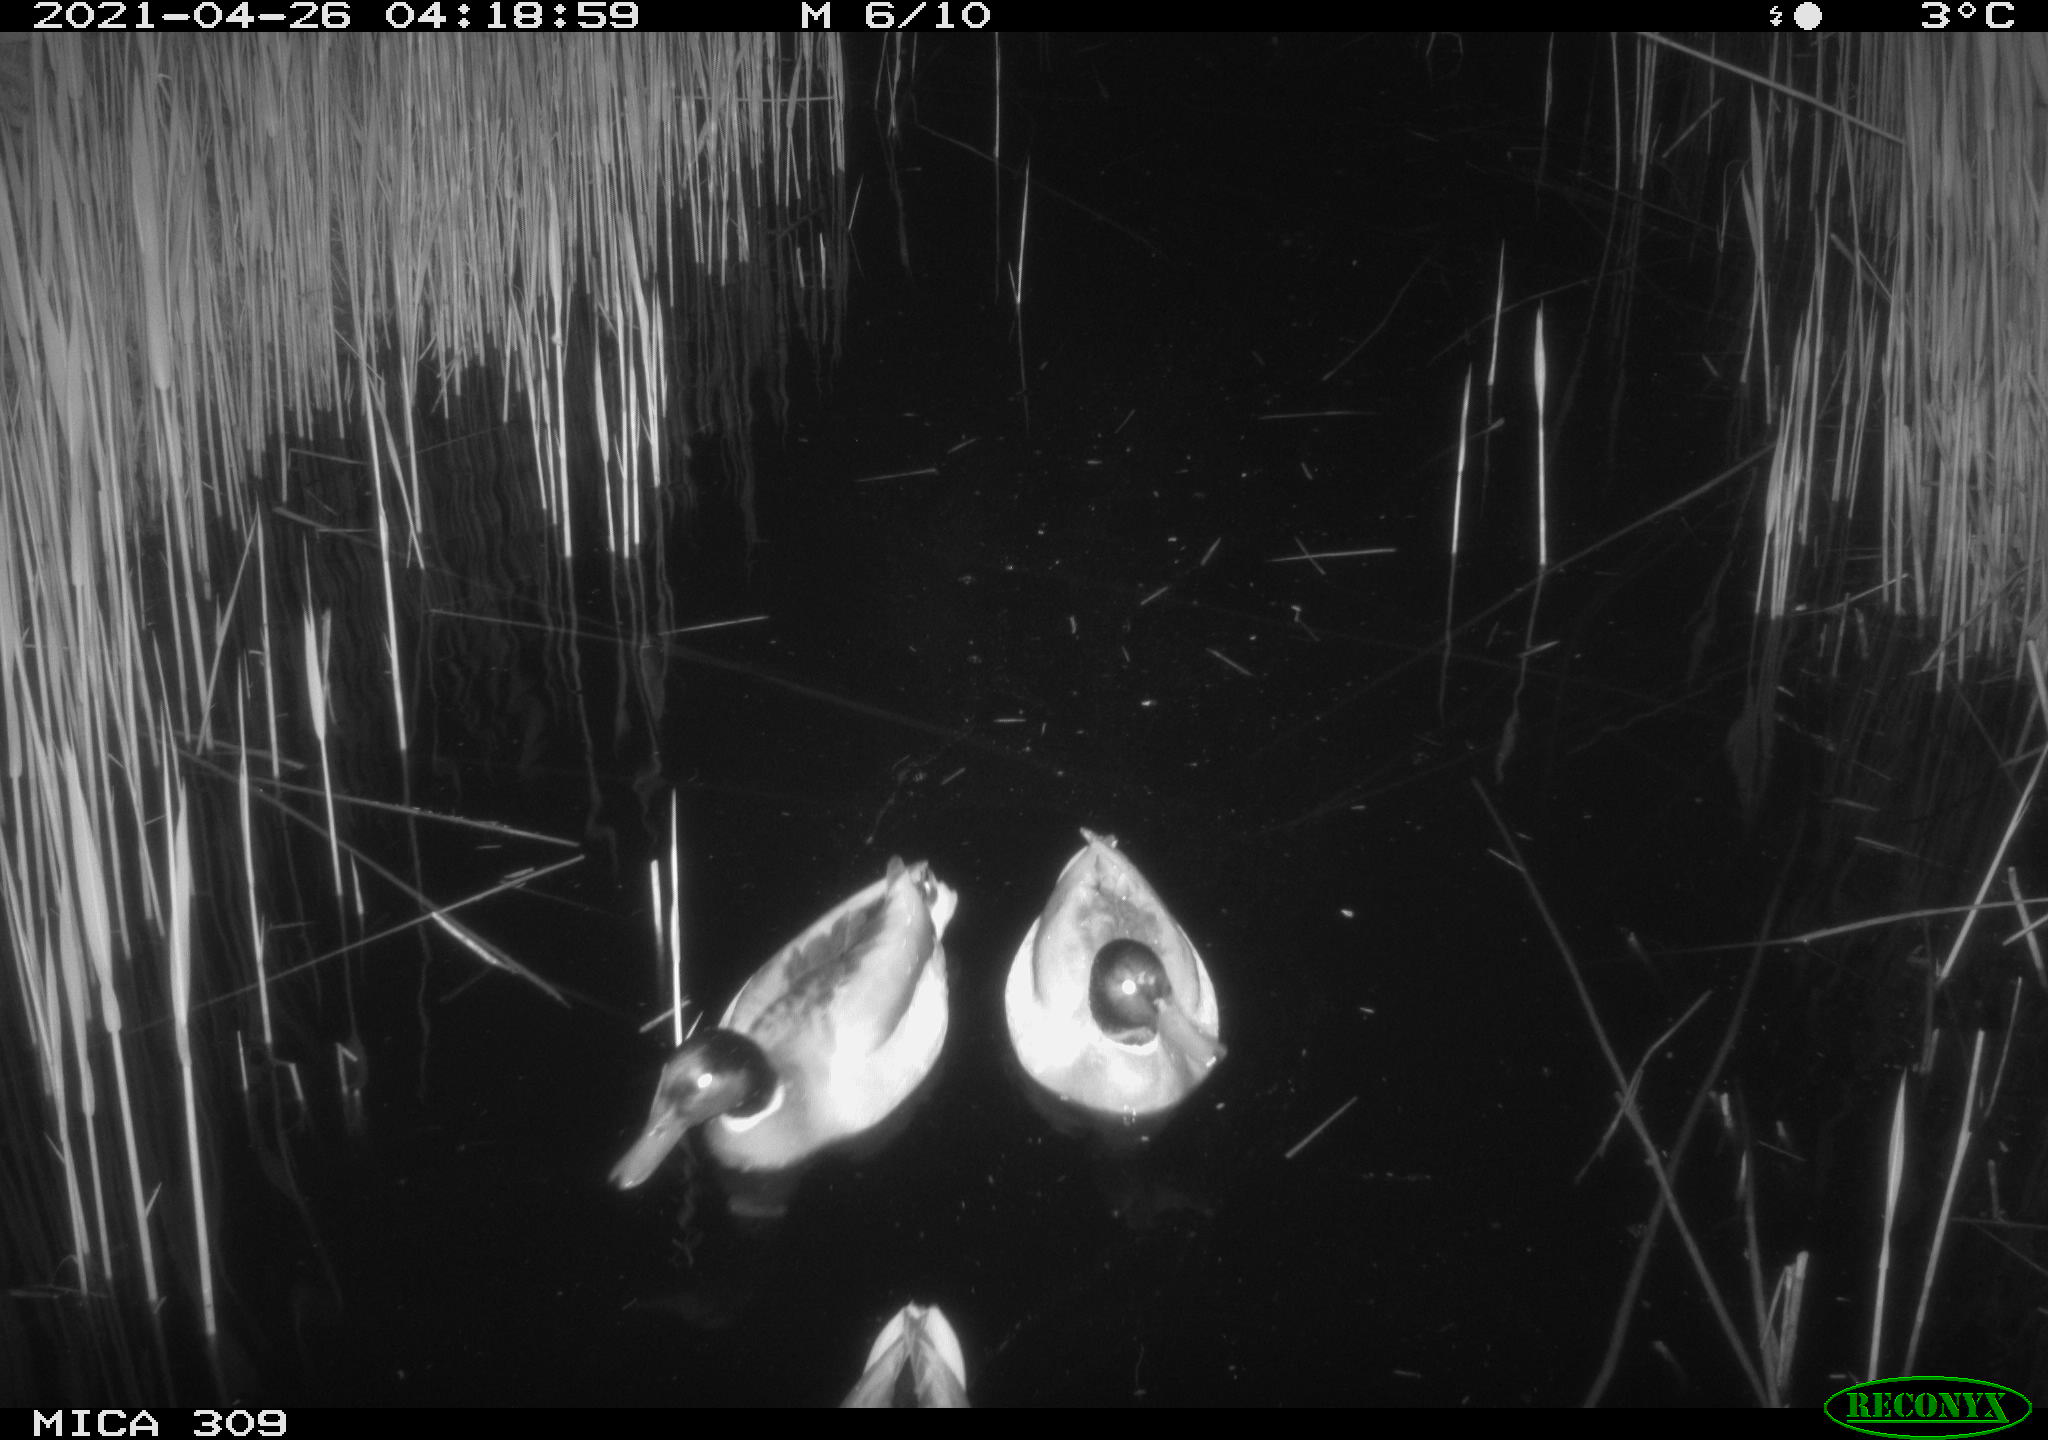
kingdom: Animalia
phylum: Chordata
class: Aves
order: Gruiformes
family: Rallidae
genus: Gallinula
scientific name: Gallinula chloropus
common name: Common moorhen
